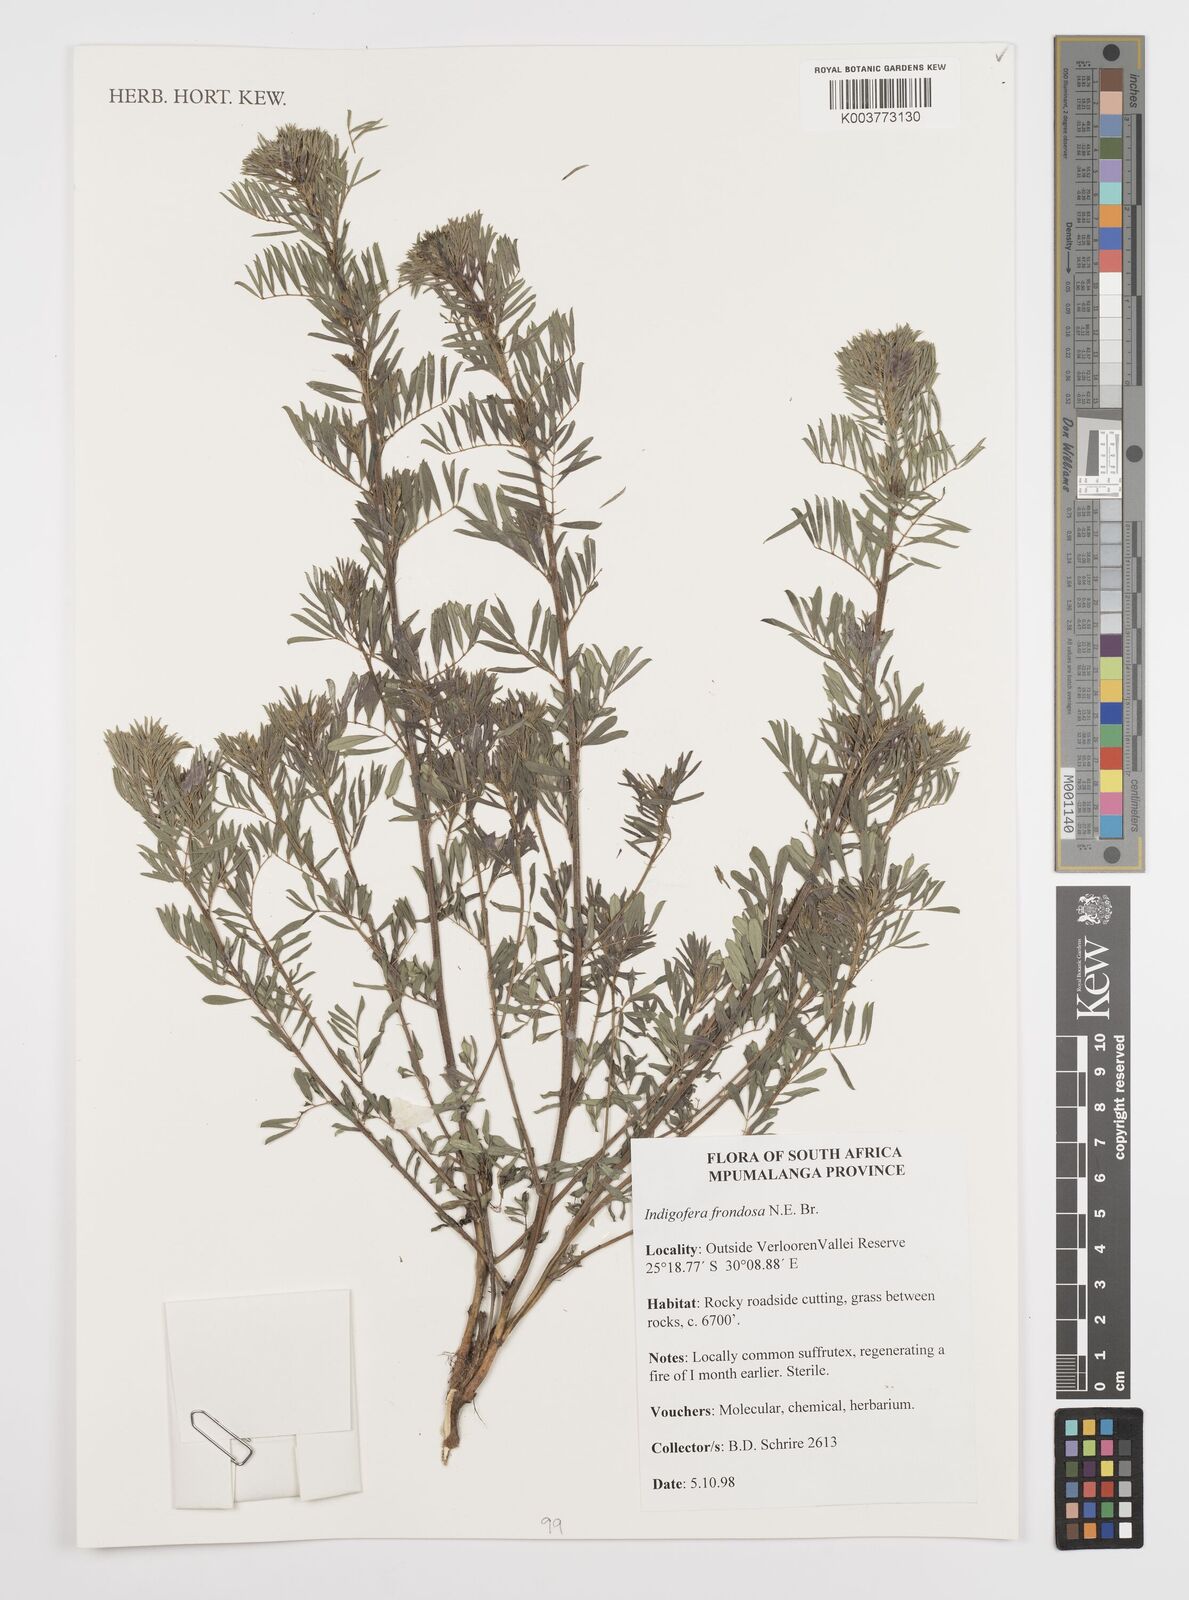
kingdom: Plantae
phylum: Tracheophyta
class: Magnoliopsida
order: Fabales
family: Fabaceae
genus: Indigofera
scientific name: Indigofera
